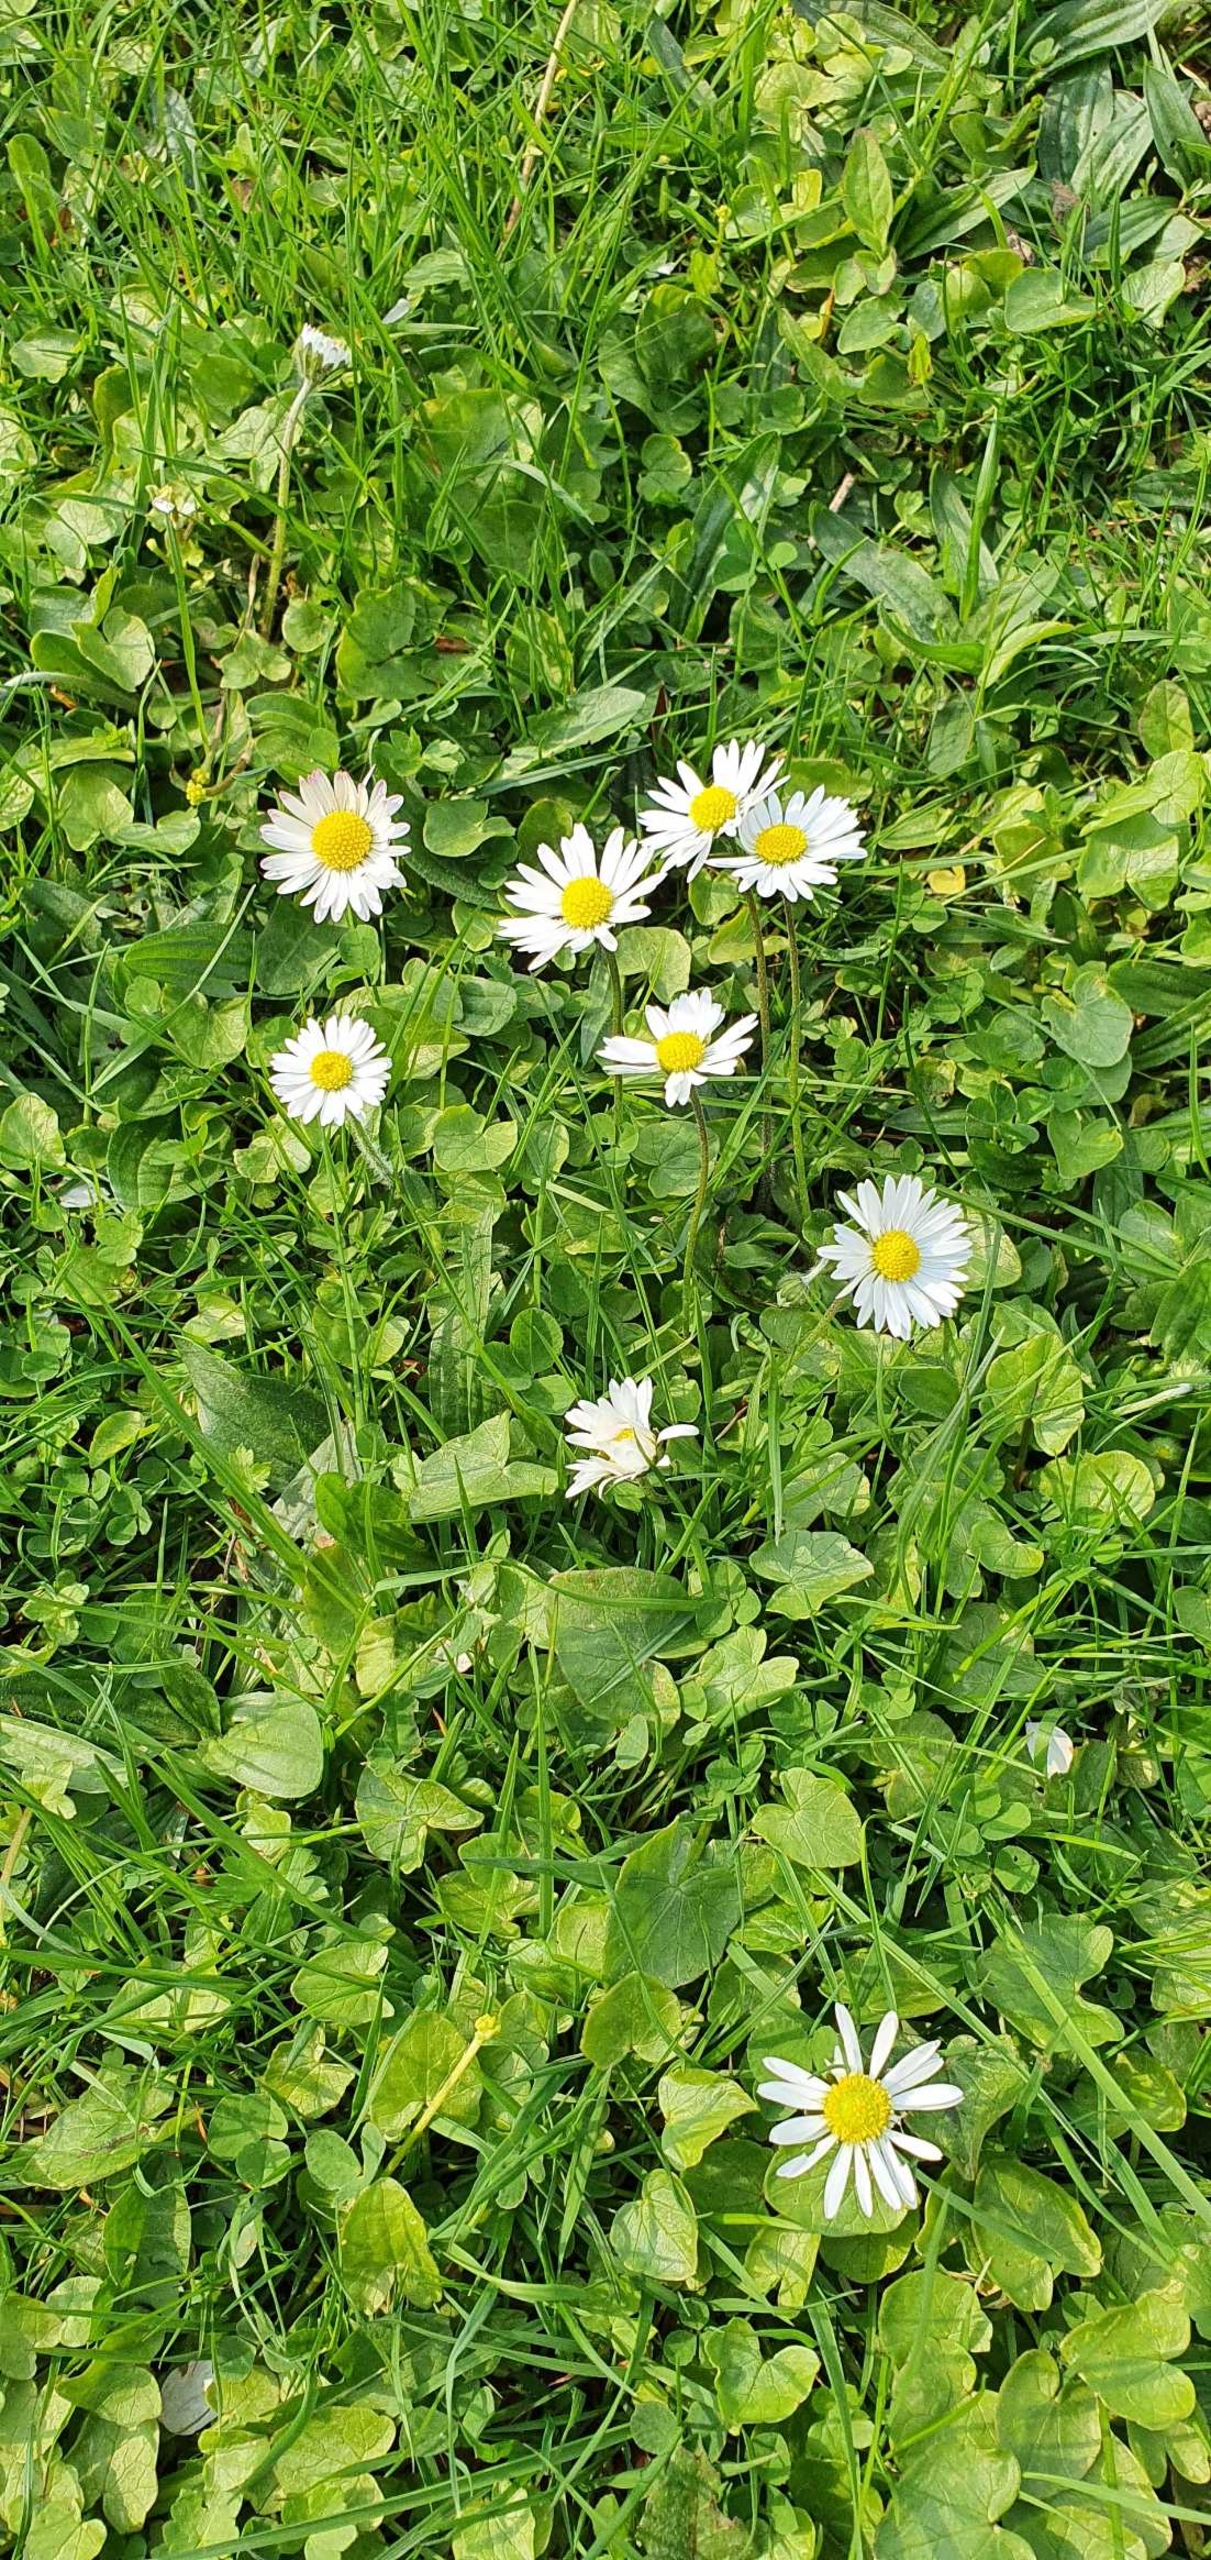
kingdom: Plantae
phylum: Tracheophyta
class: Magnoliopsida
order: Asterales
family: Asteraceae
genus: Bellis
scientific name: Bellis perennis
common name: Tusindfryd
